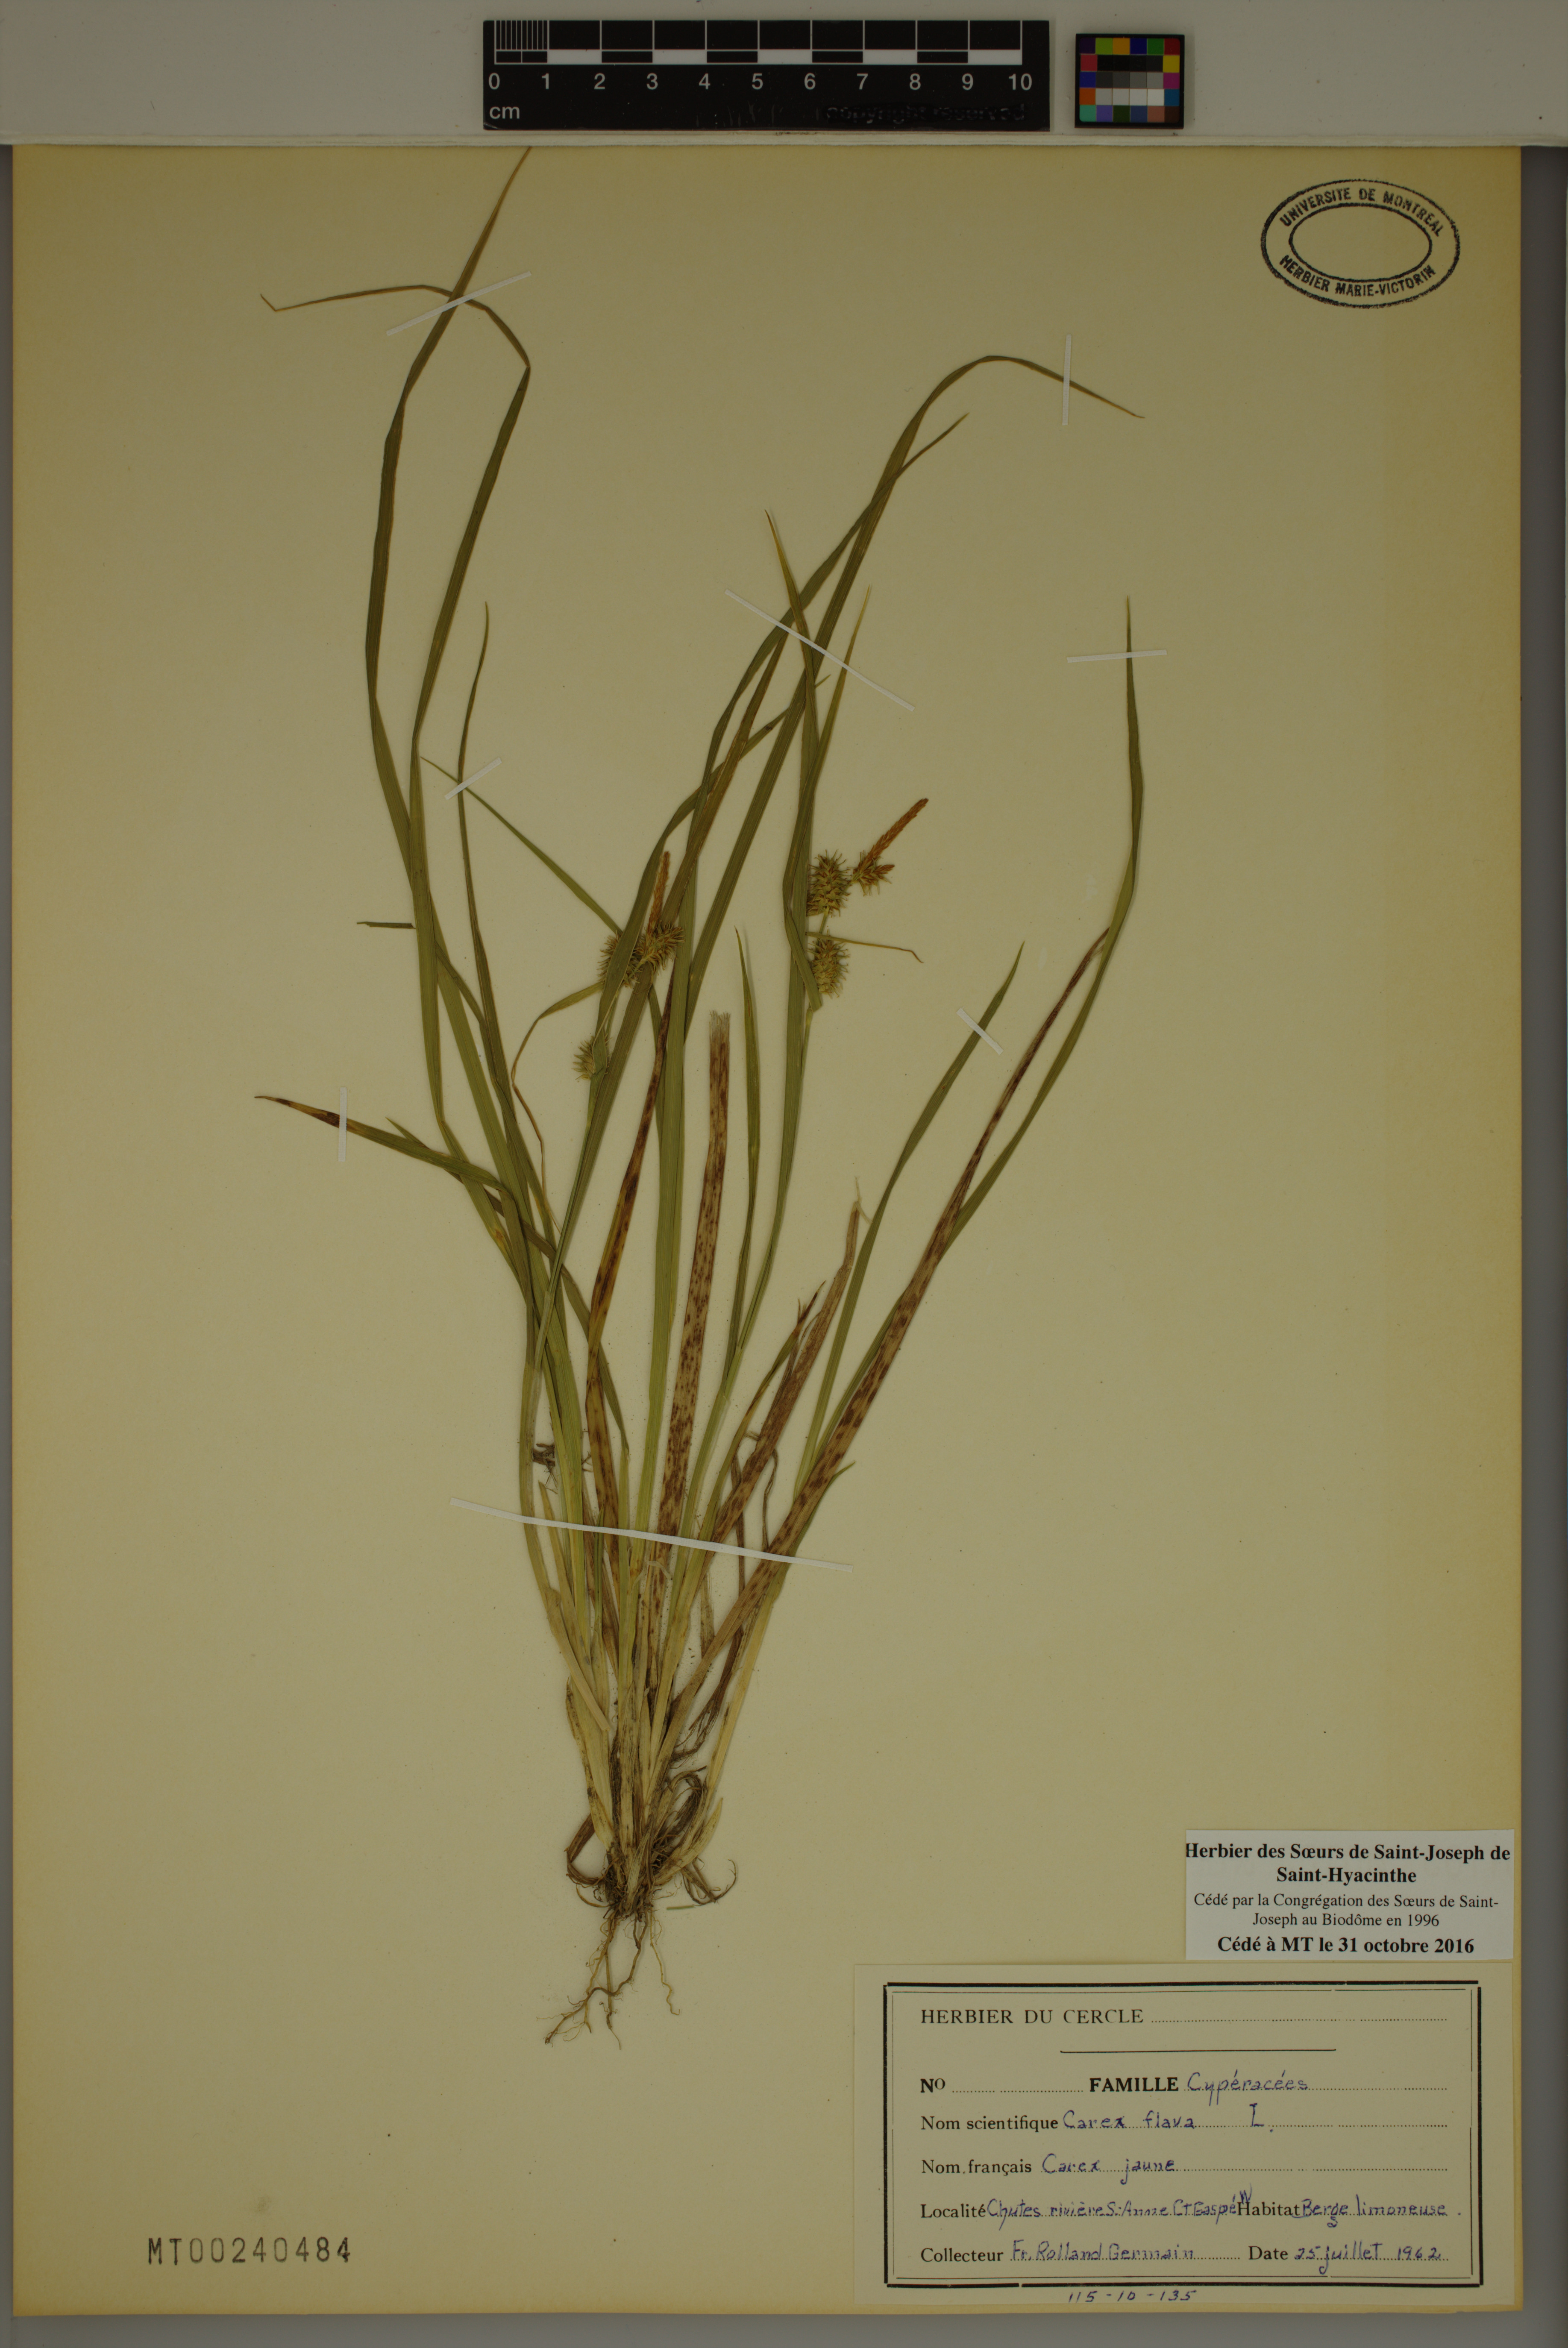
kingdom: Plantae
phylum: Tracheophyta
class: Liliopsida
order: Poales
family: Cyperaceae
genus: Carex
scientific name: Carex flava
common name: Large yellow-sedge
